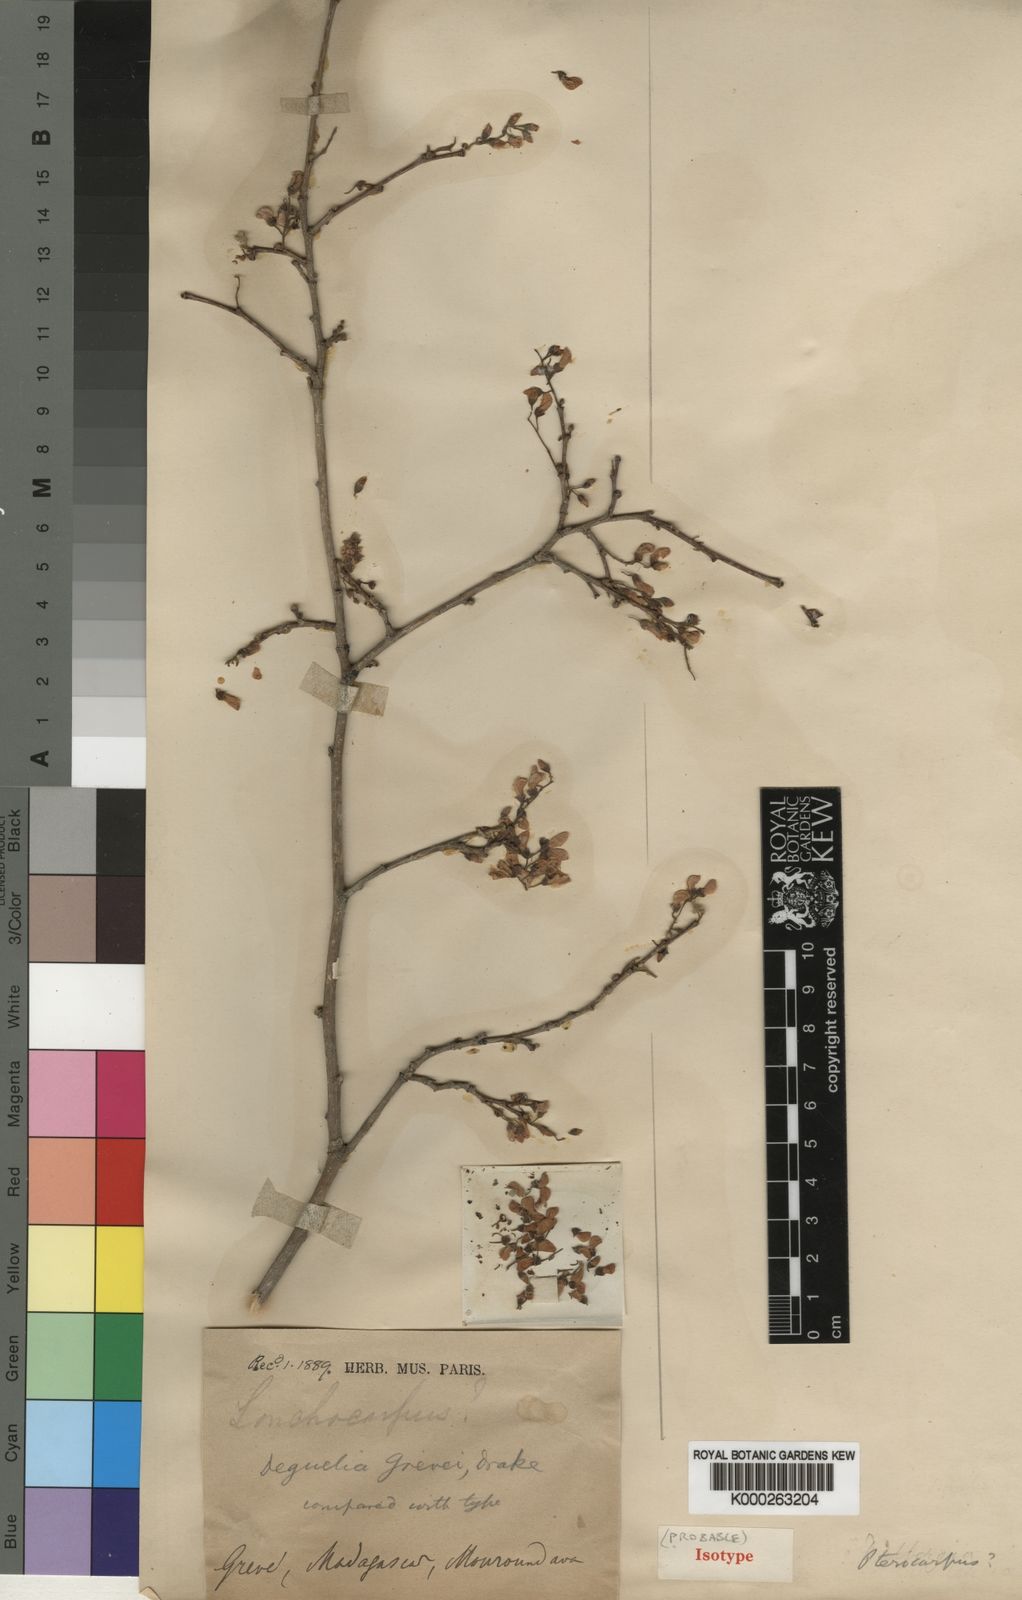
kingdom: Plantae
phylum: Tracheophyta
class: Magnoliopsida
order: Fabales
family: Fabaceae
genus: Pongamiopsis
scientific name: Pongamiopsis pervilleana
